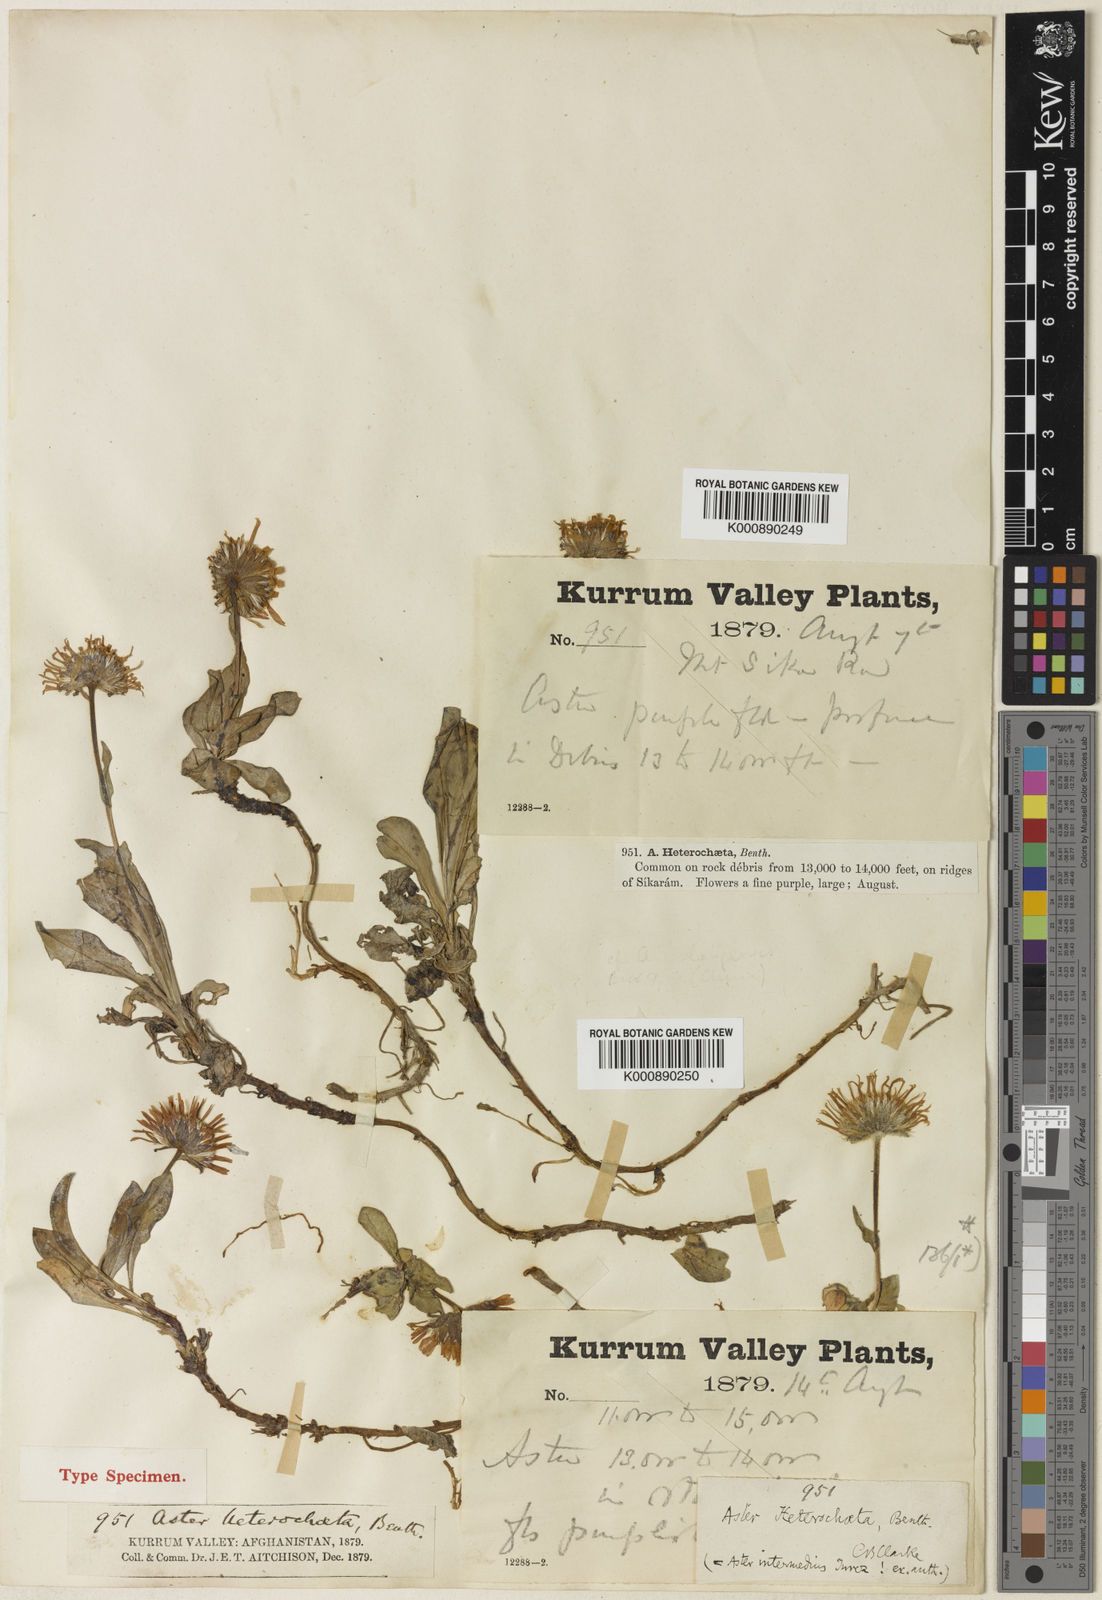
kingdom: Plantae
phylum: Tracheophyta
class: Magnoliopsida
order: Asterales
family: Asteraceae
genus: Aster
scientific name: Aster
